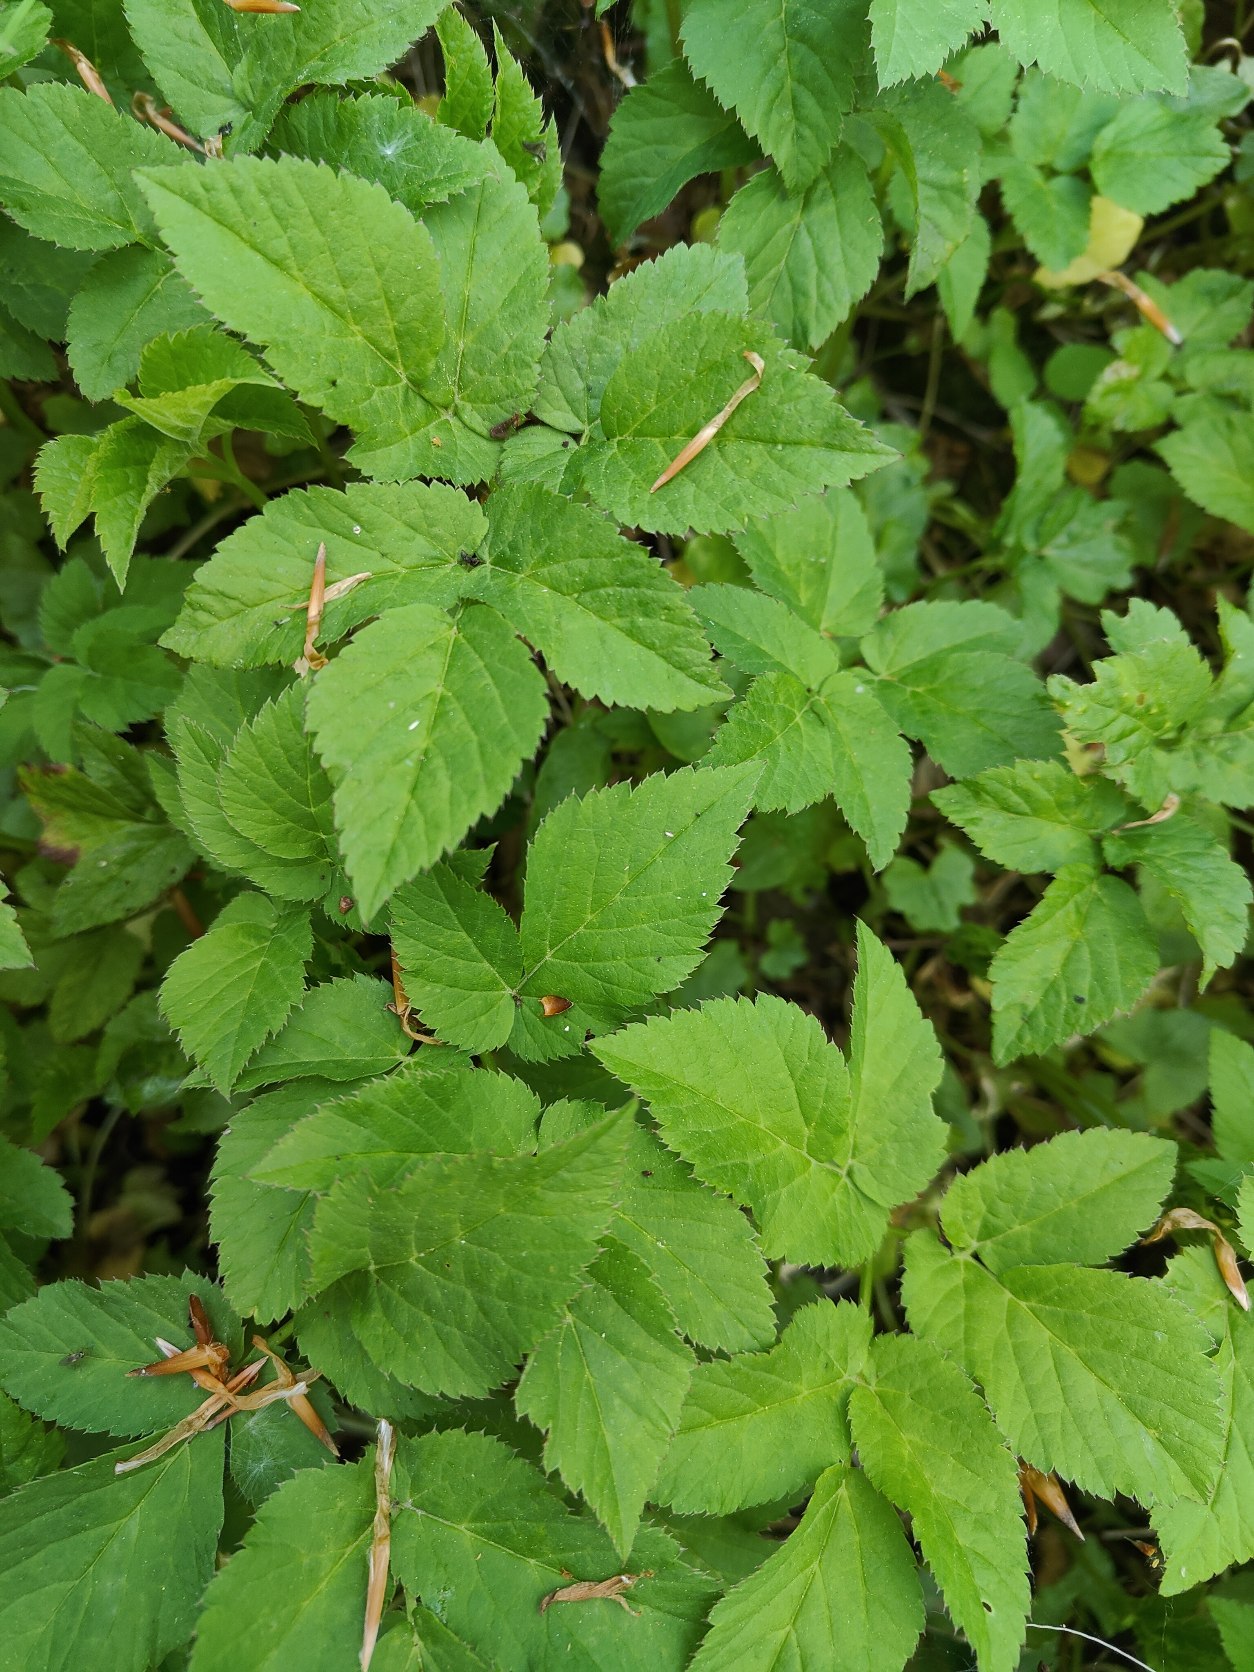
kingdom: Plantae
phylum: Tracheophyta
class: Magnoliopsida
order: Apiales
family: Apiaceae
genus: Aegopodium
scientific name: Aegopodium podagraria
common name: Skvalderkål
